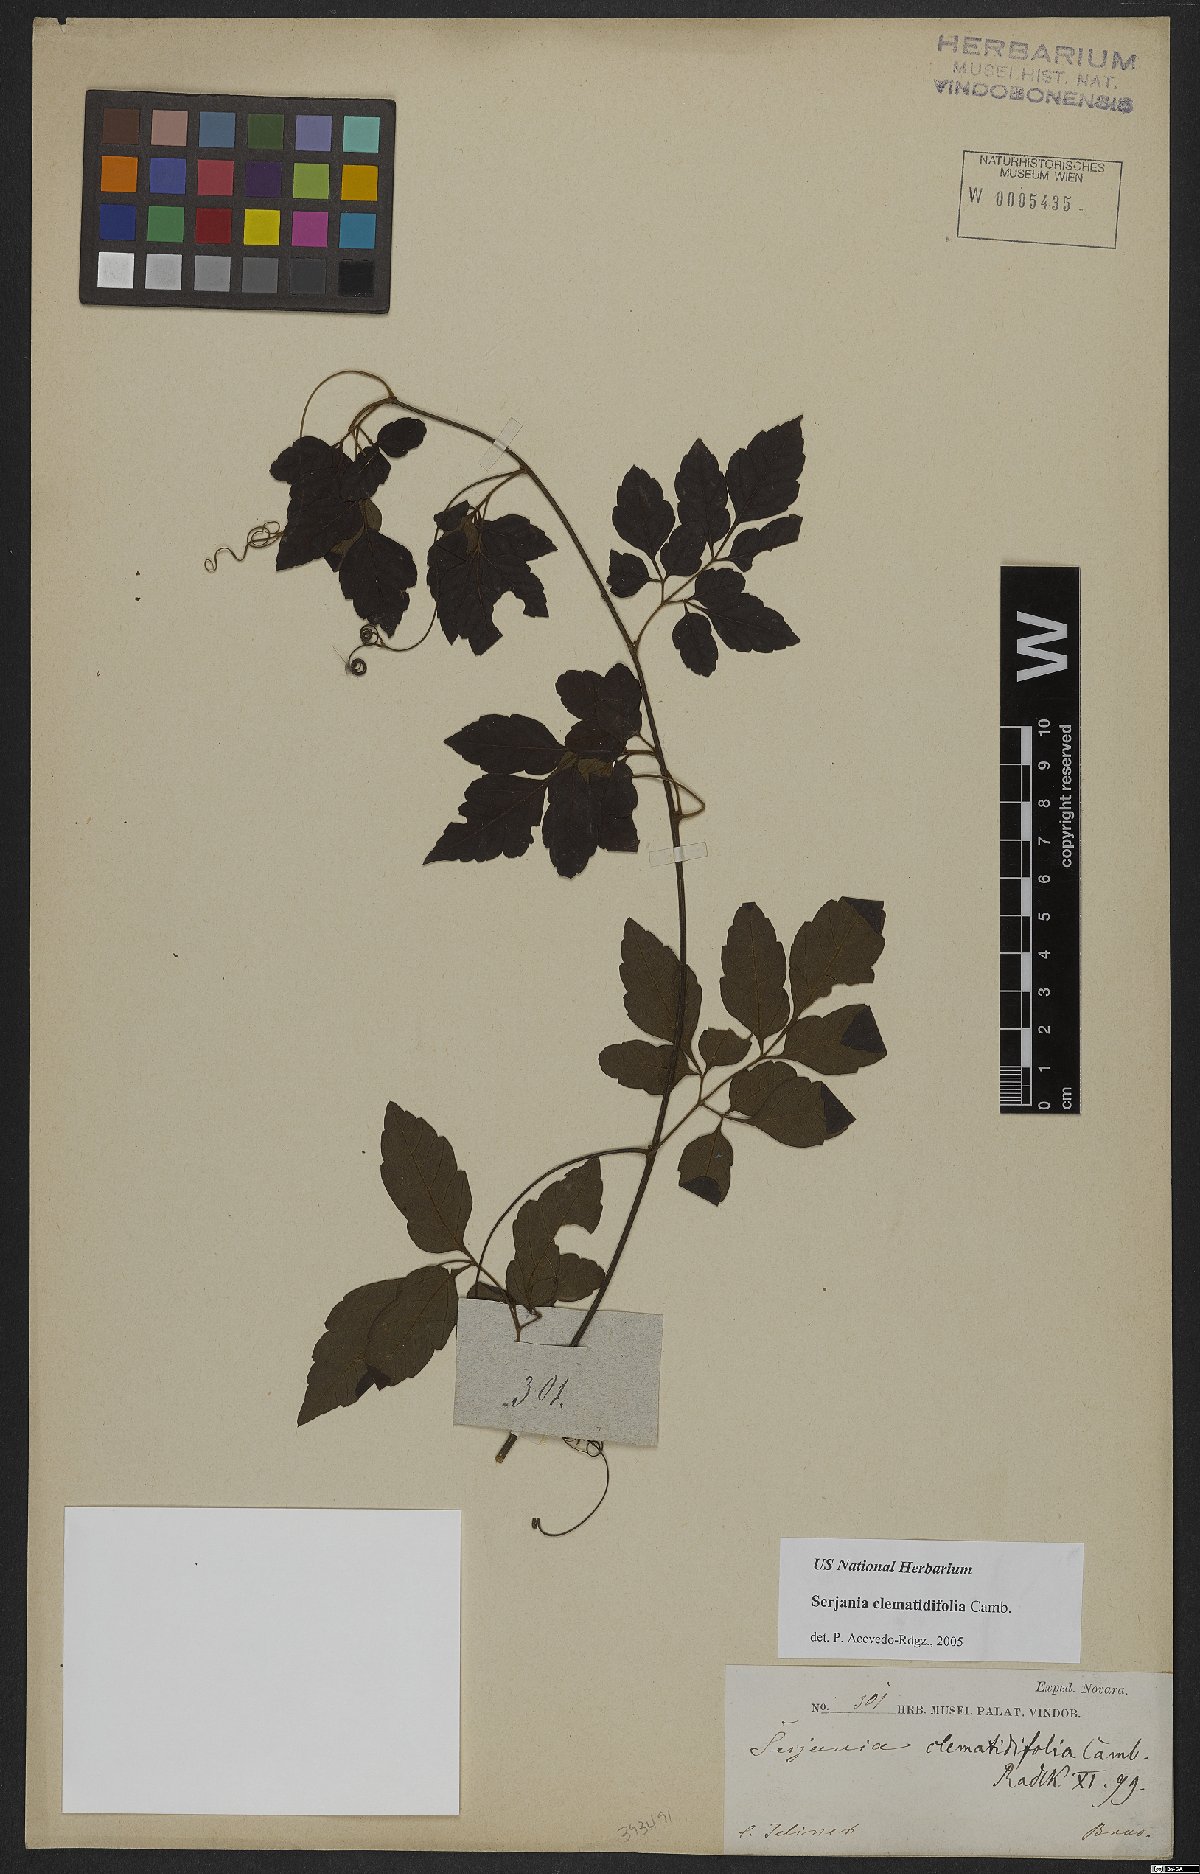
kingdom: Plantae
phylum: Tracheophyta
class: Magnoliopsida
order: Sapindales
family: Sapindaceae
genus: Serjania
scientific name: Serjania clematidifolia
